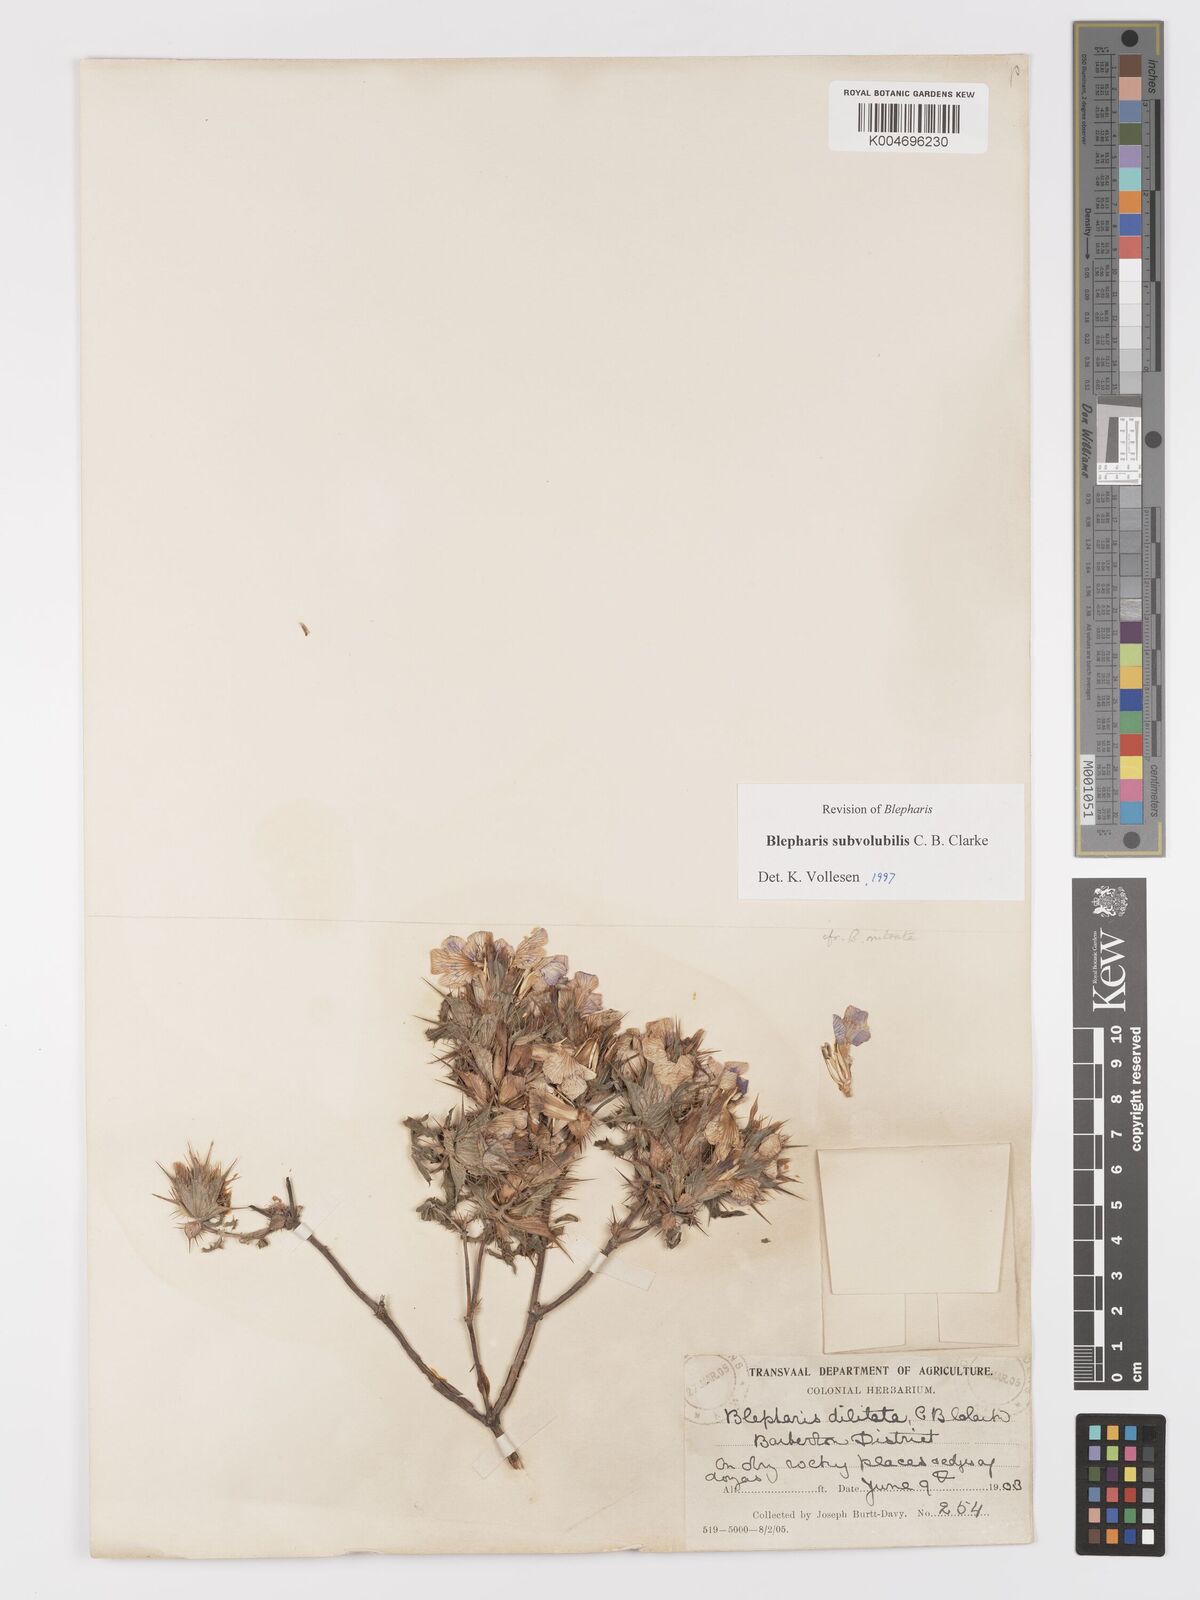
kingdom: Plantae
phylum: Tracheophyta
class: Magnoliopsida
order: Lamiales
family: Acanthaceae
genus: Blepharis
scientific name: Blepharis subvolubilis
